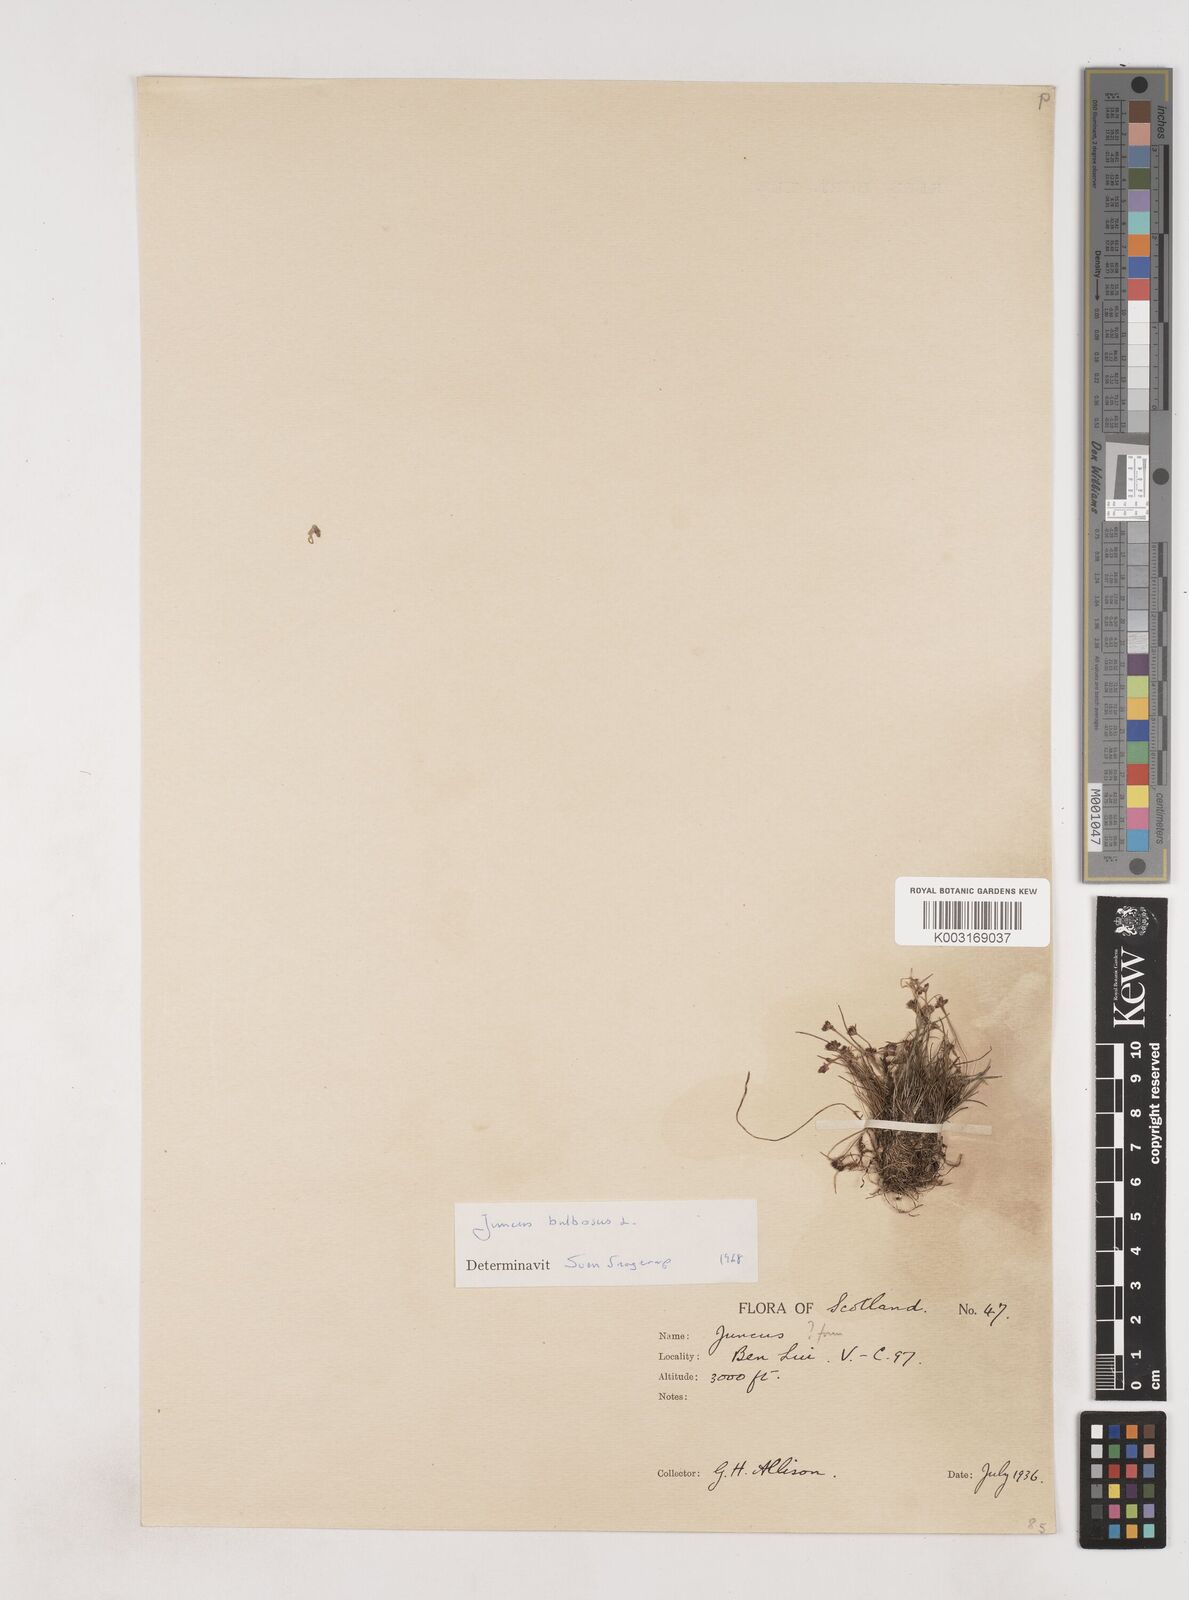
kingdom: Plantae
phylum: Tracheophyta
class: Liliopsida
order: Poales
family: Juncaceae
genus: Juncus
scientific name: Juncus bulbosus
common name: Bulbous rush
